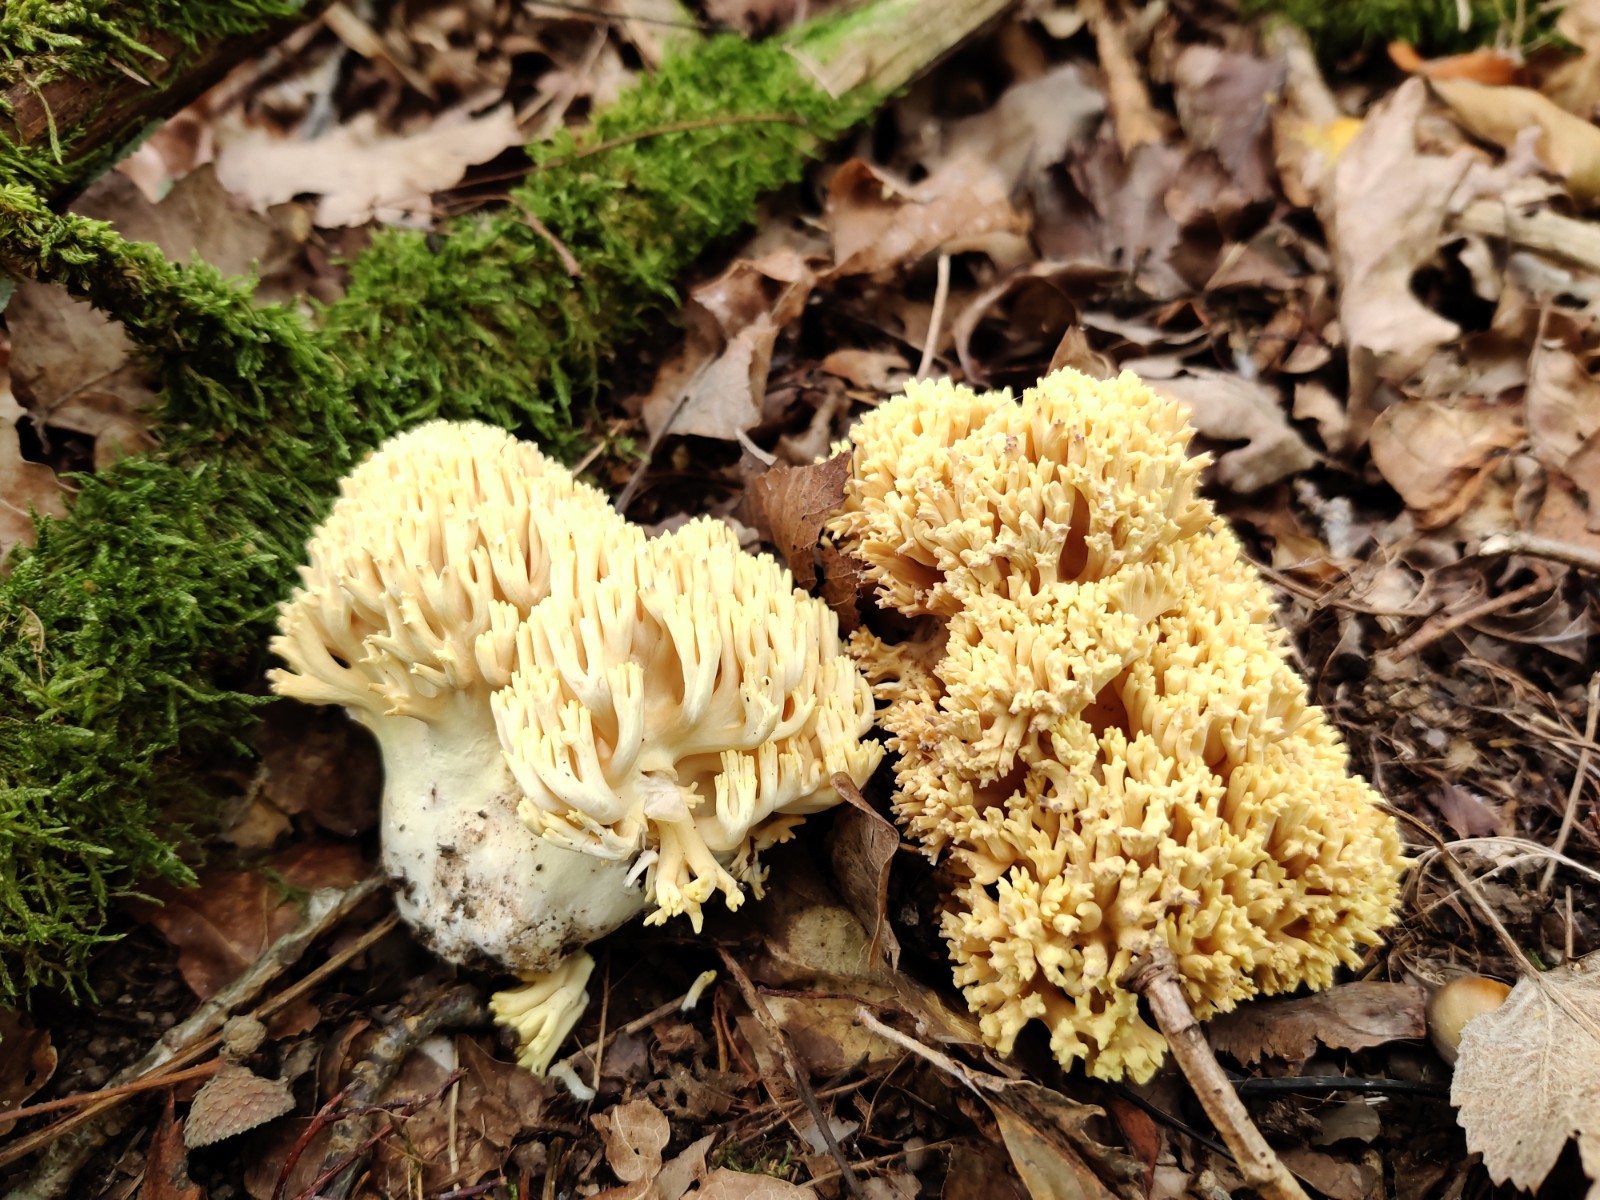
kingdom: Fungi
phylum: Basidiomycota
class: Agaricomycetes
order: Gomphales
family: Gomphaceae
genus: Ramaria
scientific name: Ramaria
